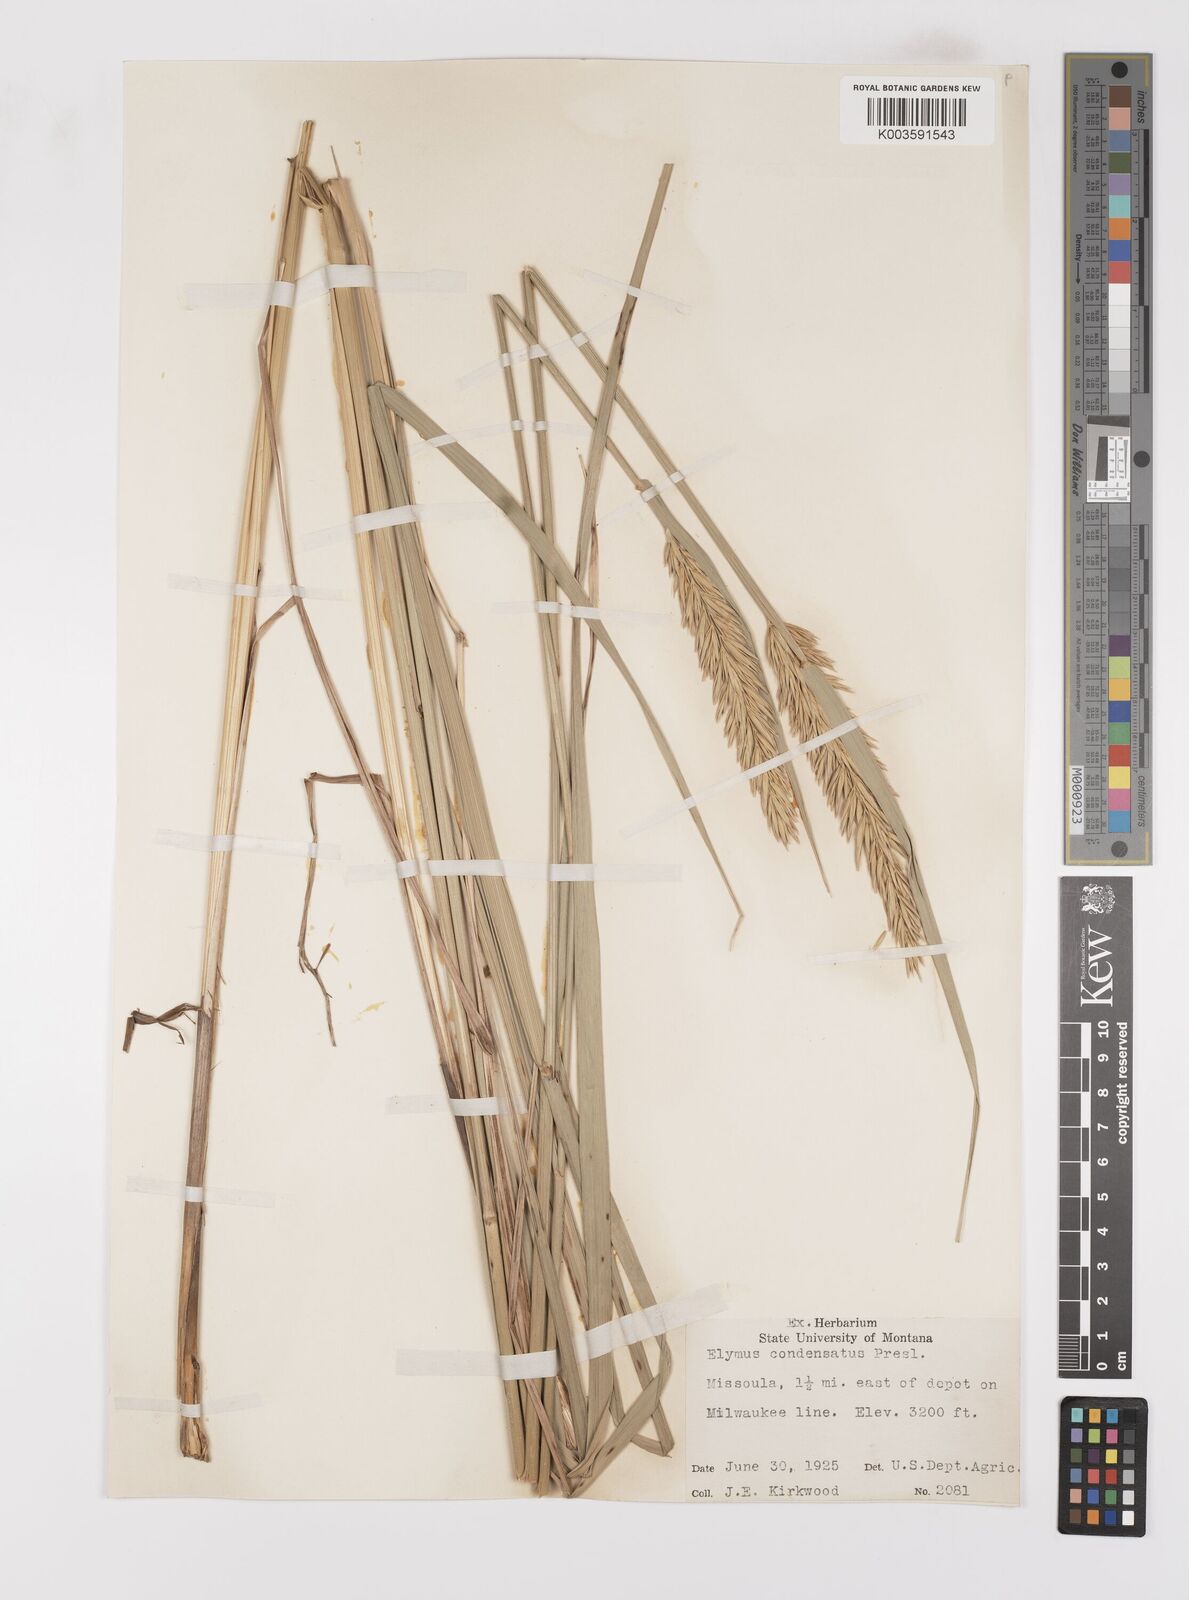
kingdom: Plantae
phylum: Tracheophyta
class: Liliopsida
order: Poales
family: Poaceae
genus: Leymus
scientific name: Leymus condensatus
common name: Giant wild rye
